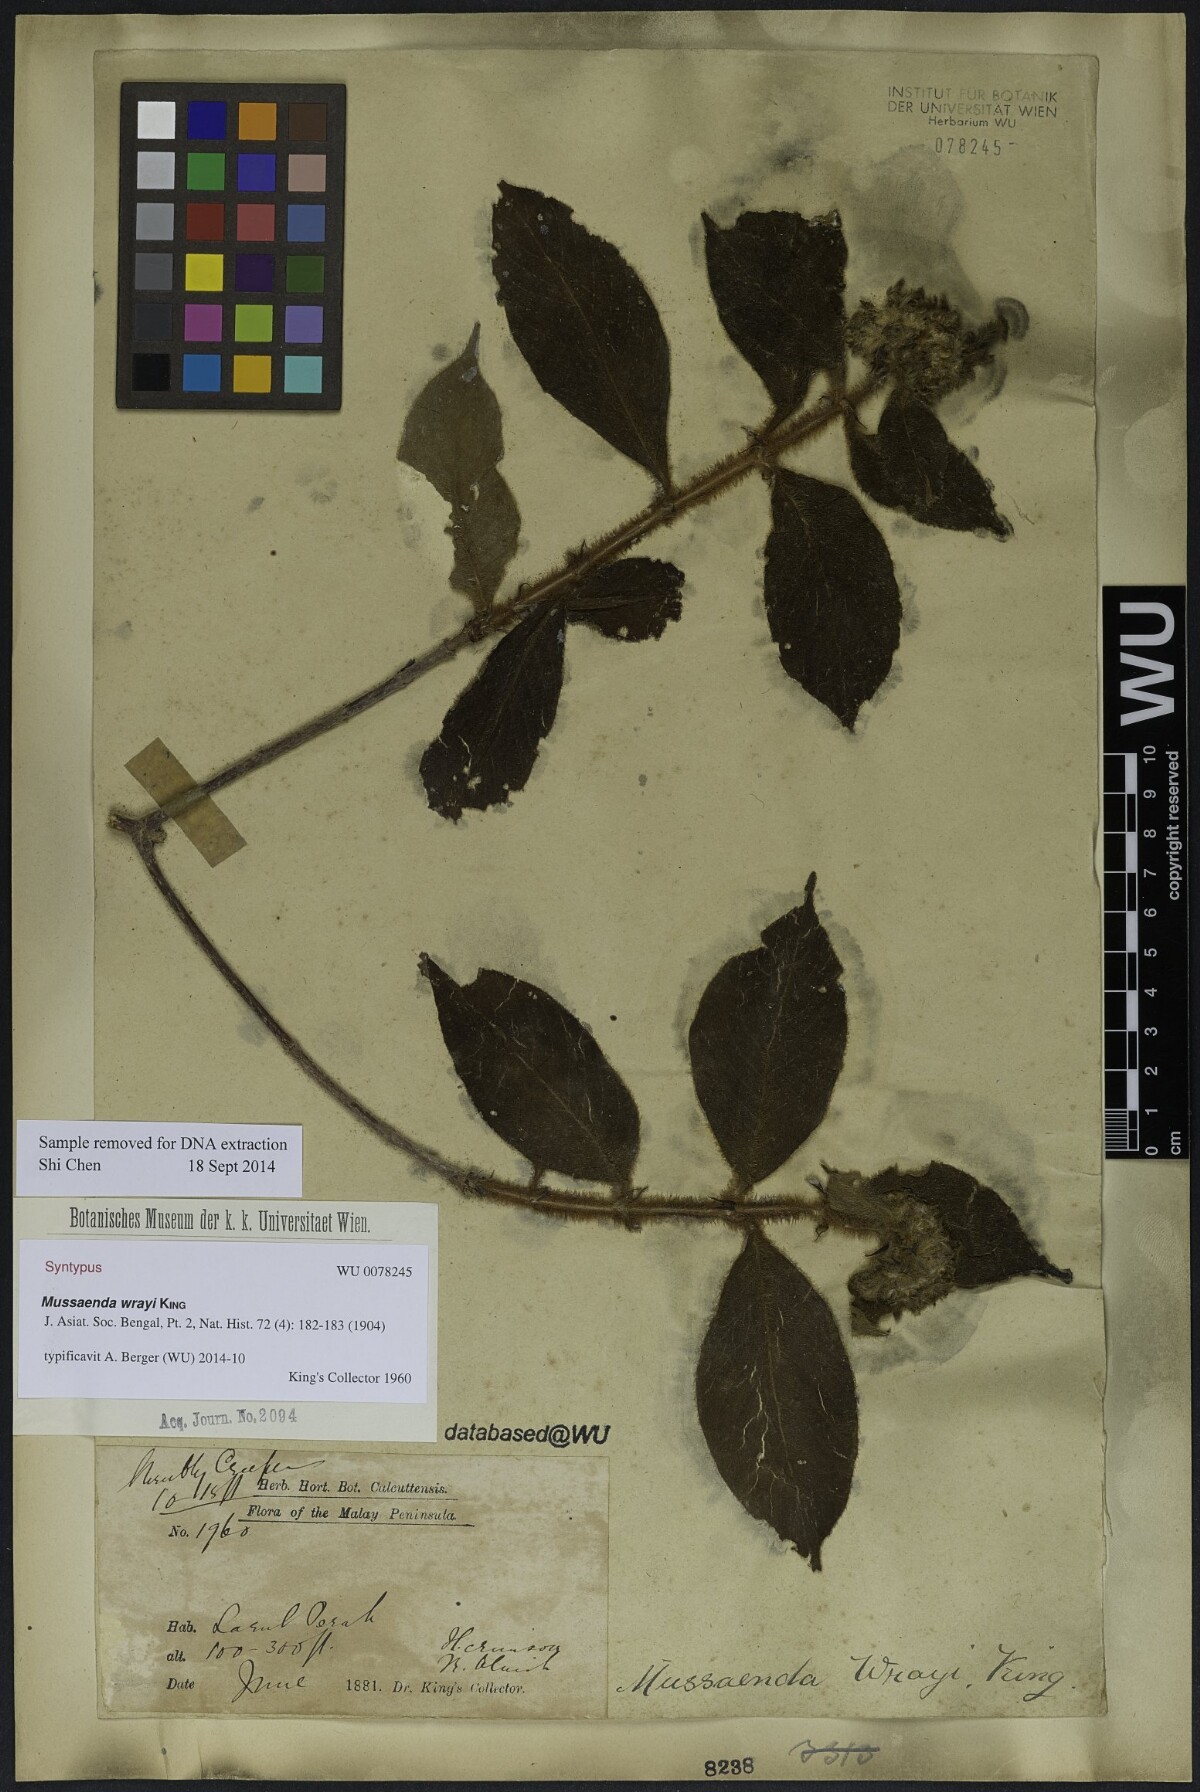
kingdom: Plantae
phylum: Tracheophyta
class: Magnoliopsida
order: Gentianales
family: Rubiaceae
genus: Mussaenda
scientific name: Mussaenda wrayi
